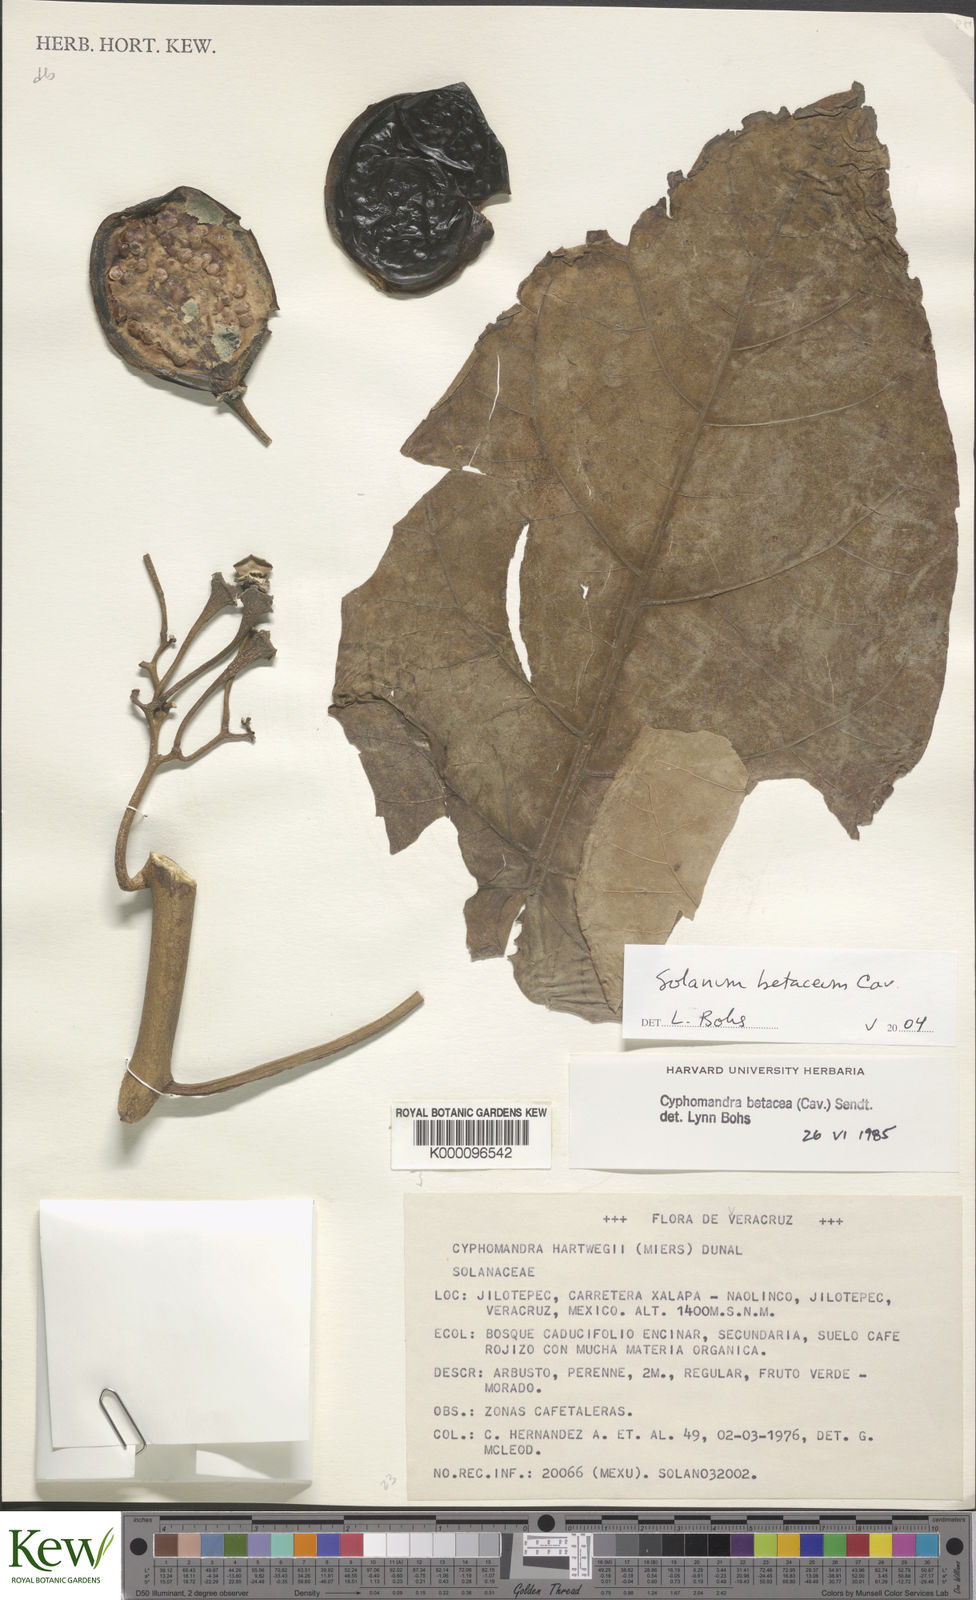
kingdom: Plantae
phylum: Tracheophyta
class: Magnoliopsida
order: Solanales
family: Solanaceae
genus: Solanum
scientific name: Solanum betaceum
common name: Tamarillo
